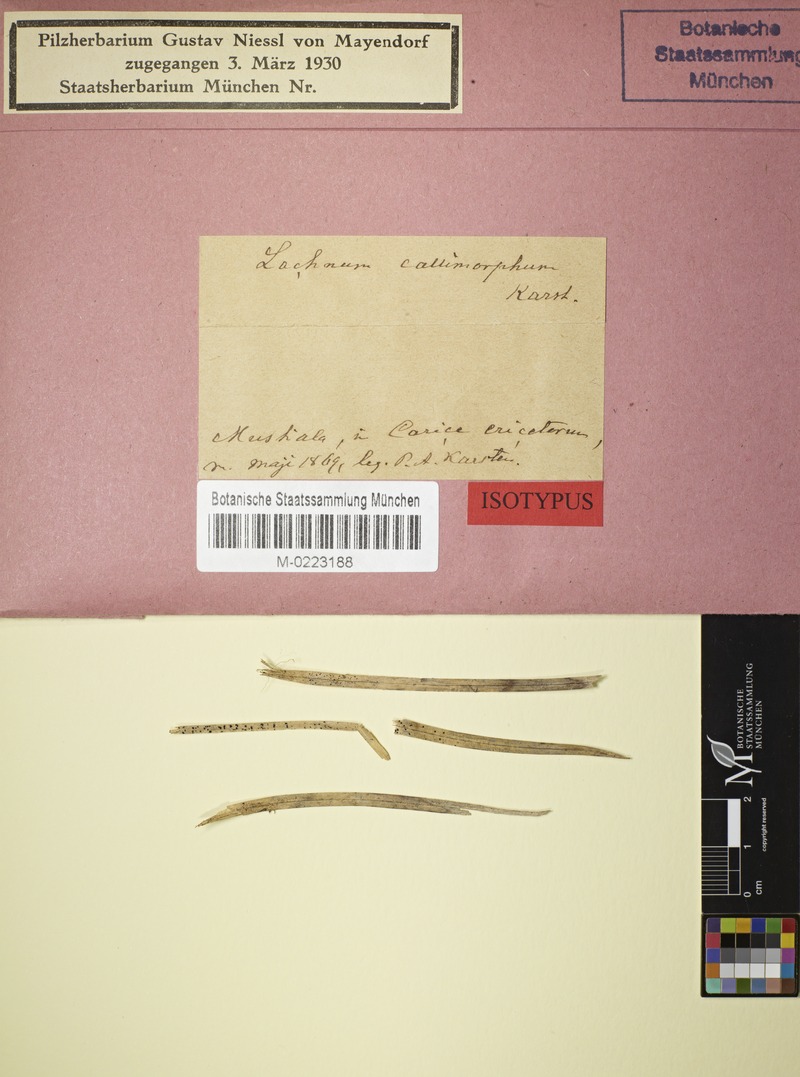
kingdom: Fungi
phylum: Ascomycota
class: Leotiomycetes
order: Helotiales
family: Lachnaceae
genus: Lachnum
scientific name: Lachnum callimorphum
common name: Heath sedge disco
